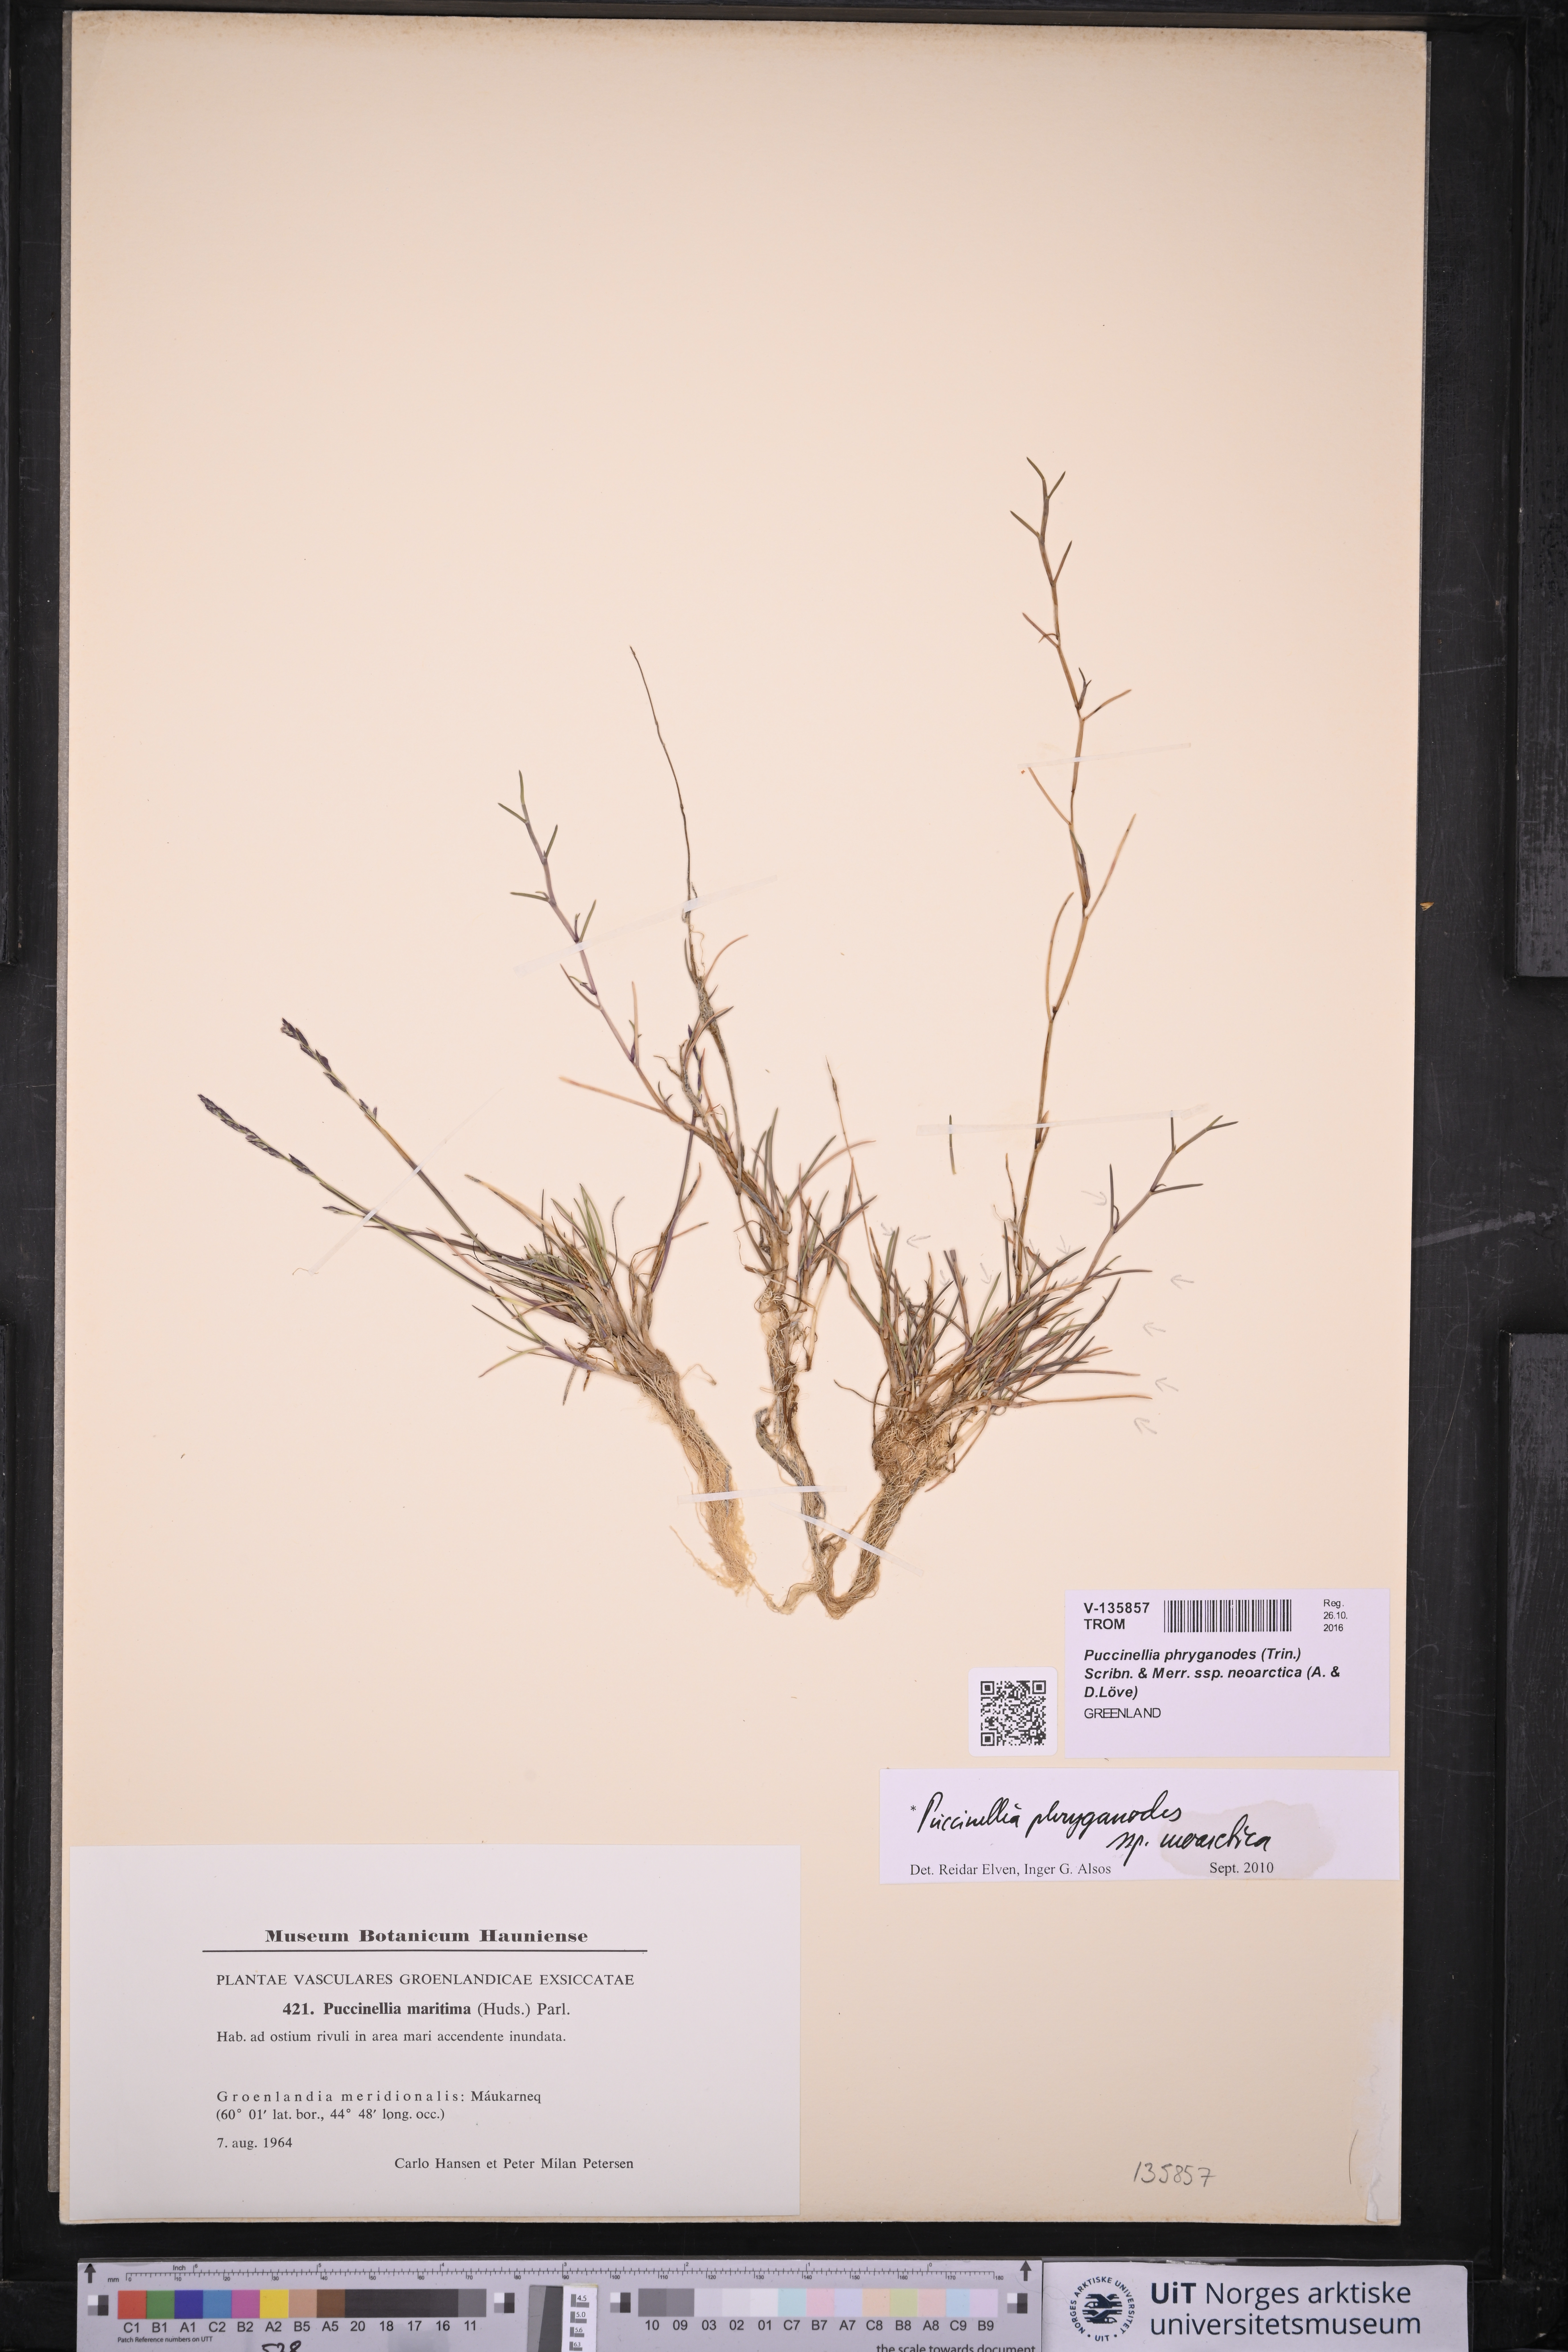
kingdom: Plantae
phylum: Tracheophyta
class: Liliopsida
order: Poales
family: Poaceae
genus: Puccinellia
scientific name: Puccinellia phryganodes
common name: Creeping alkaligrass
